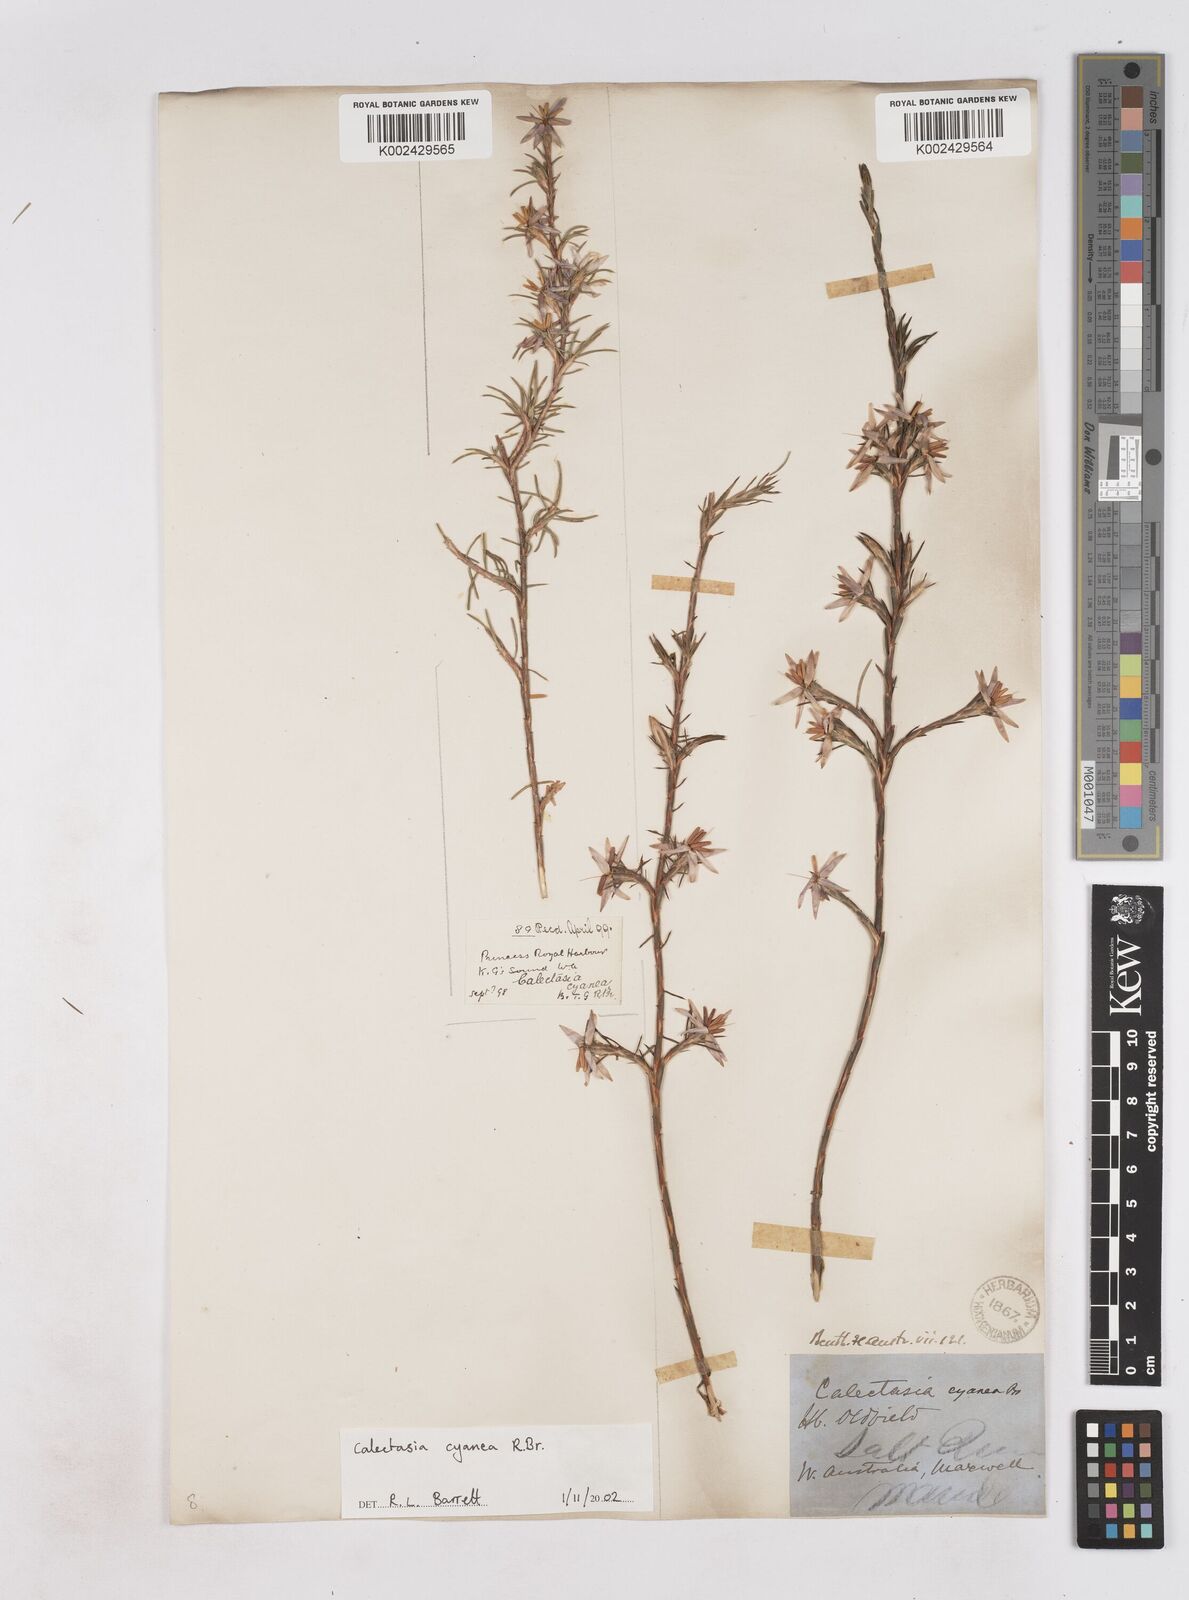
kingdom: Plantae
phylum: Tracheophyta
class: Liliopsida
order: Arecales
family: Dasypogonaceae
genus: Calectasia
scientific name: Calectasia cyanea
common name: Blue tinsel-lily
